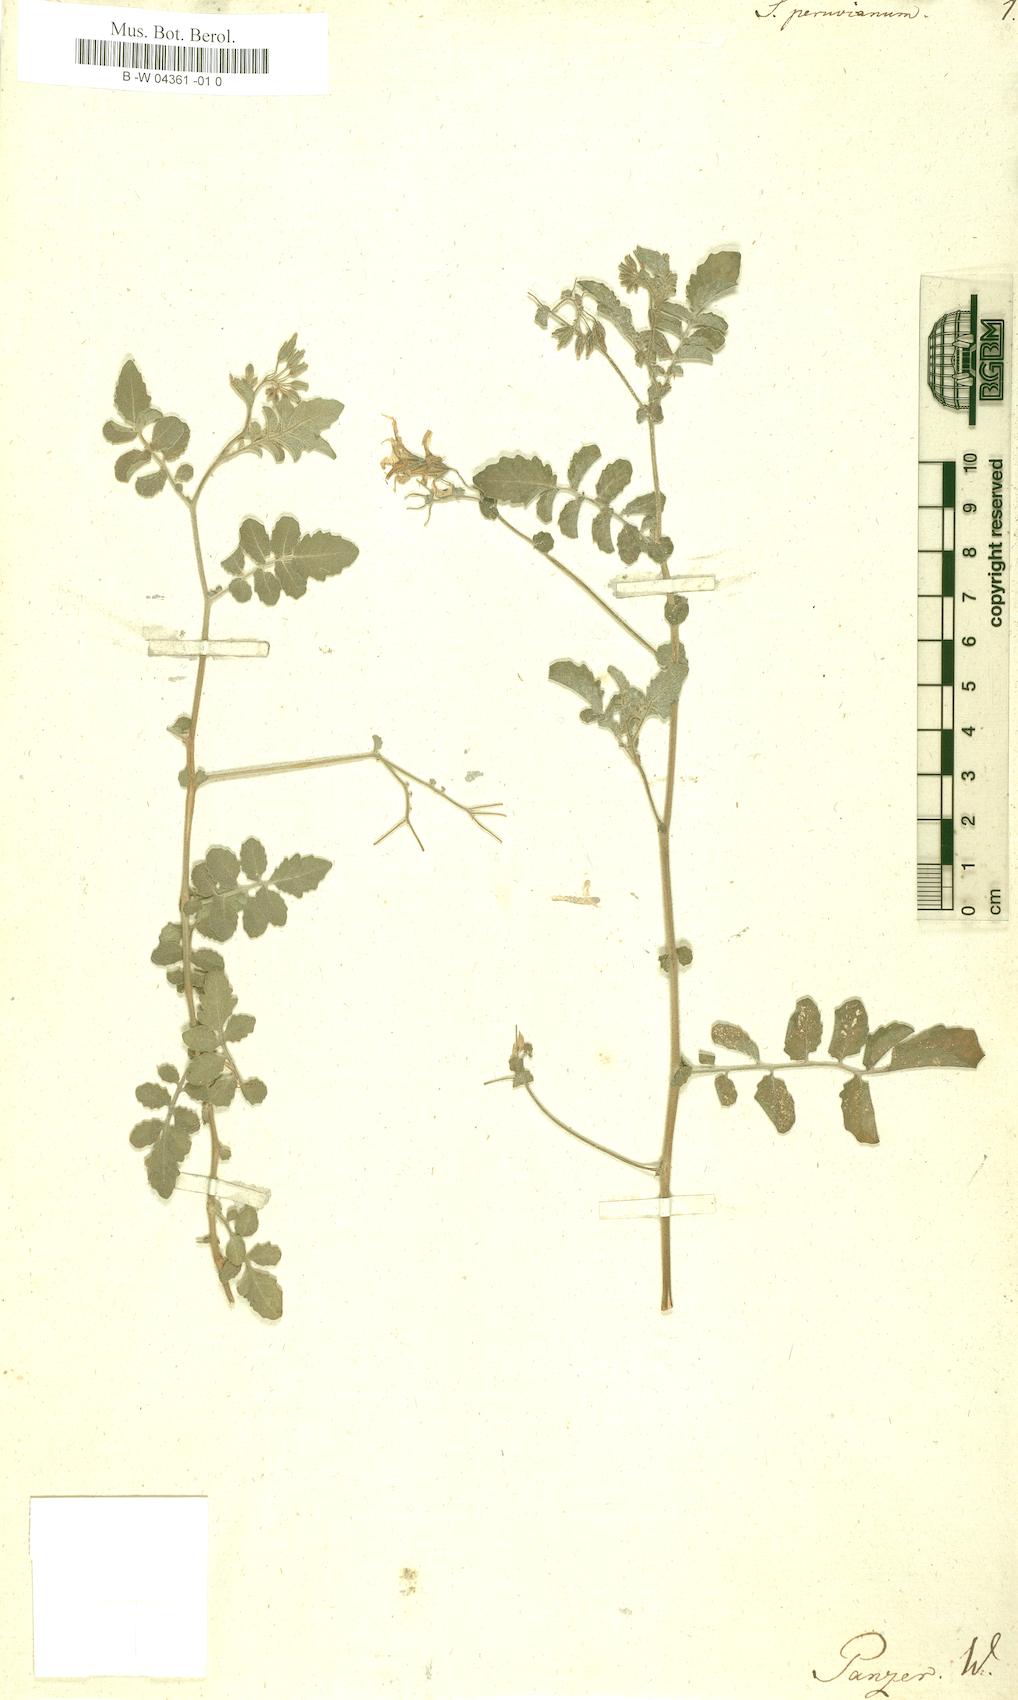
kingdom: Plantae
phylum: Tracheophyta
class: Magnoliopsida
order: Solanales
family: Solanaceae
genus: Solanum
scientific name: Solanum peruvianum
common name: Peruvian nightshade
